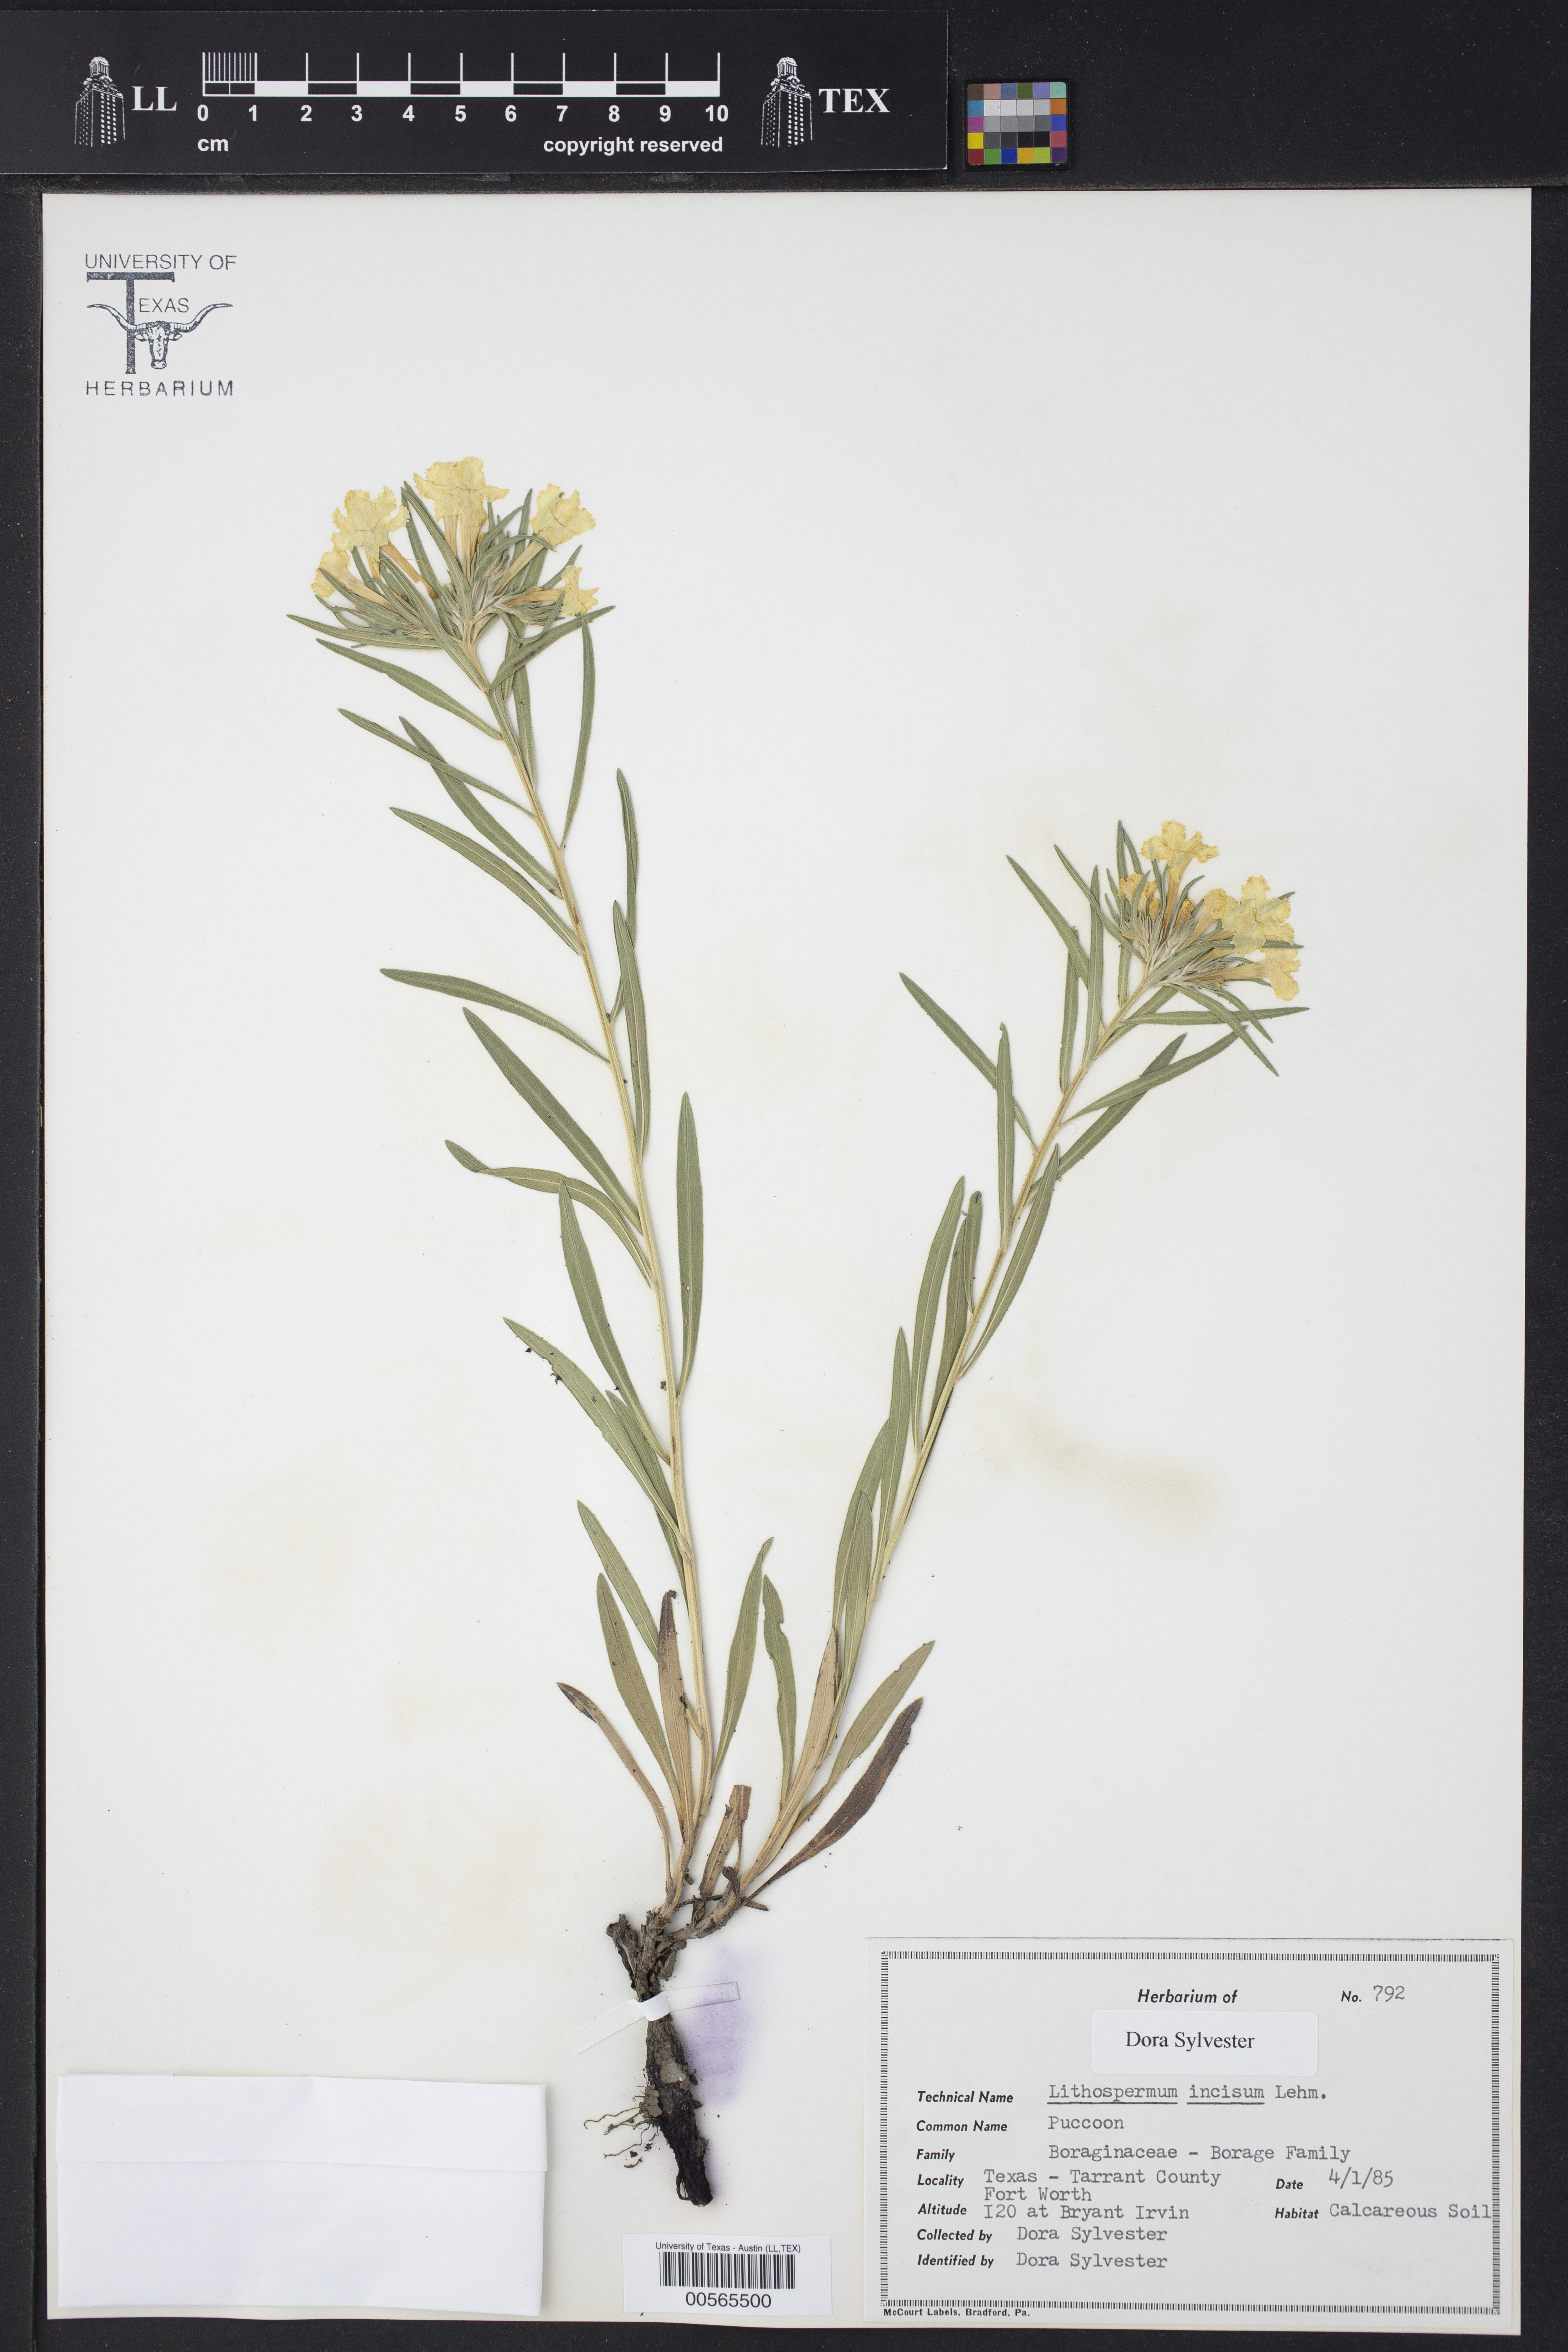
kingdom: Plantae
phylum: Tracheophyta
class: Magnoliopsida
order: Boraginales
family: Boraginaceae
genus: Lithospermum
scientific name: Lithospermum incisum
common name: Fringed gromwell
